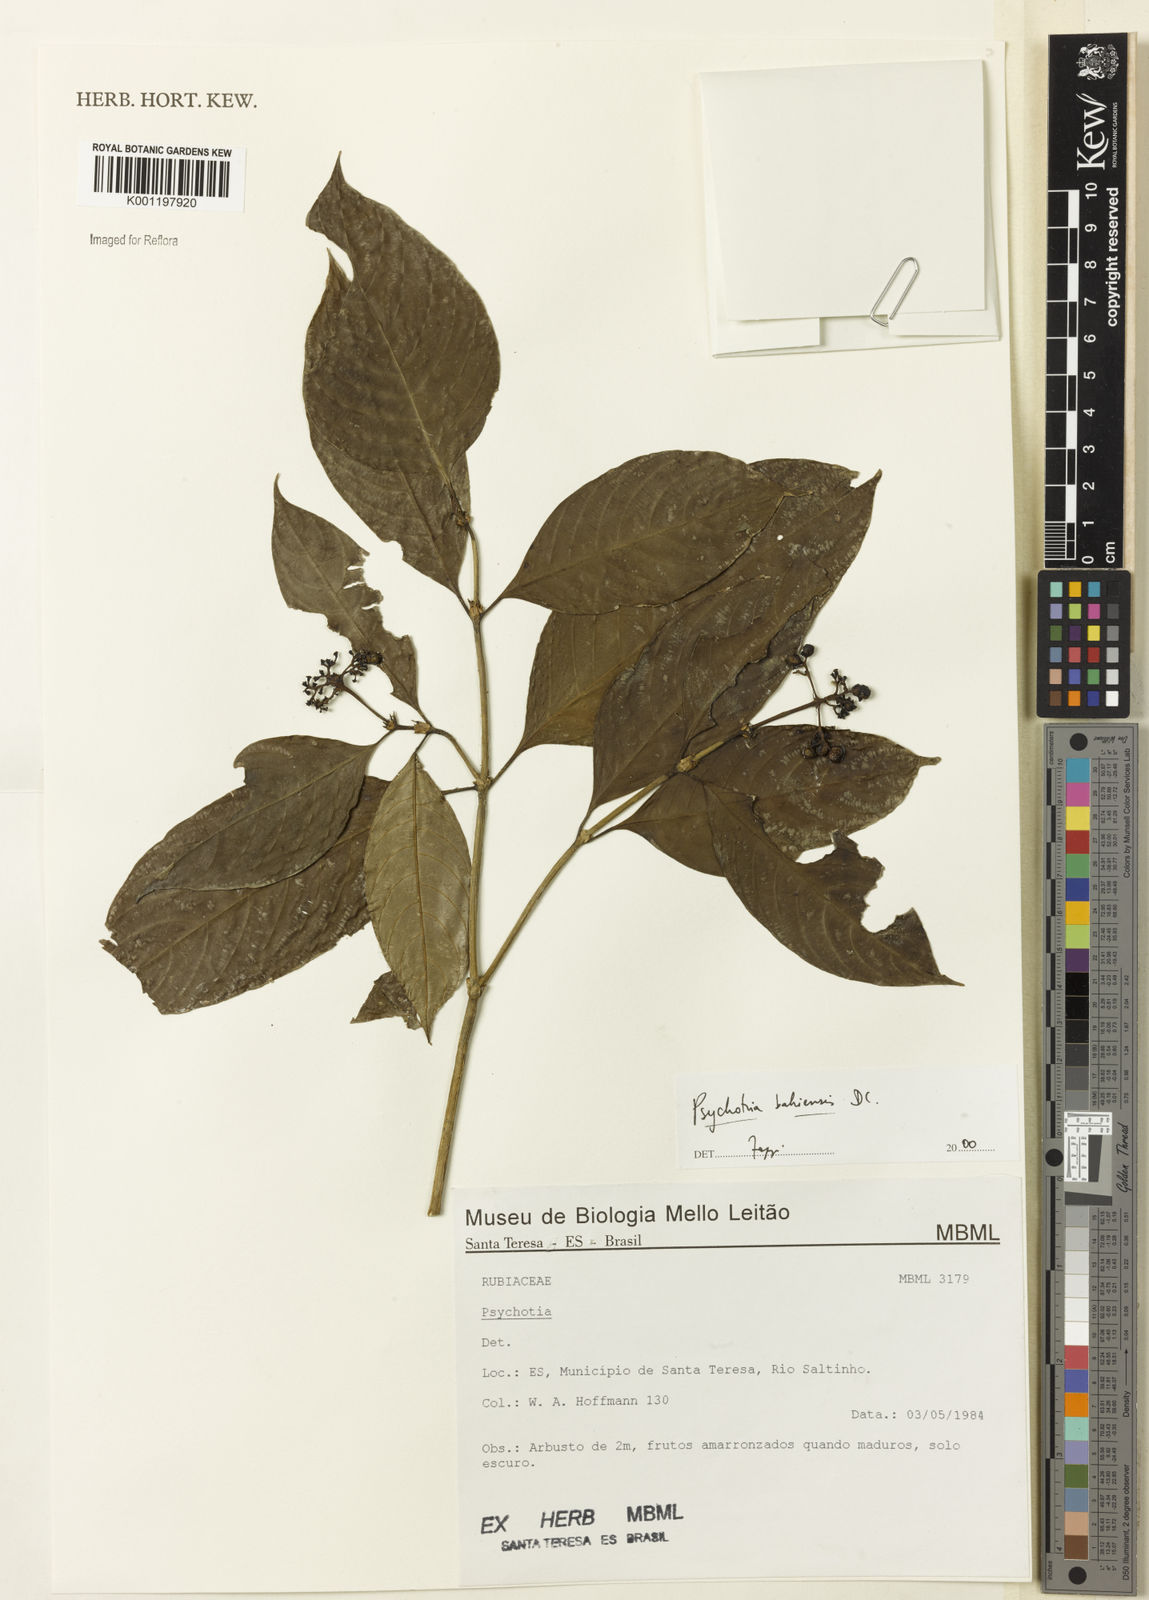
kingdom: Plantae
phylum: Tracheophyta
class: Magnoliopsida
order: Gentianales
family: Rubiaceae
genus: Psychotria
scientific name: Psychotria bahiensis
